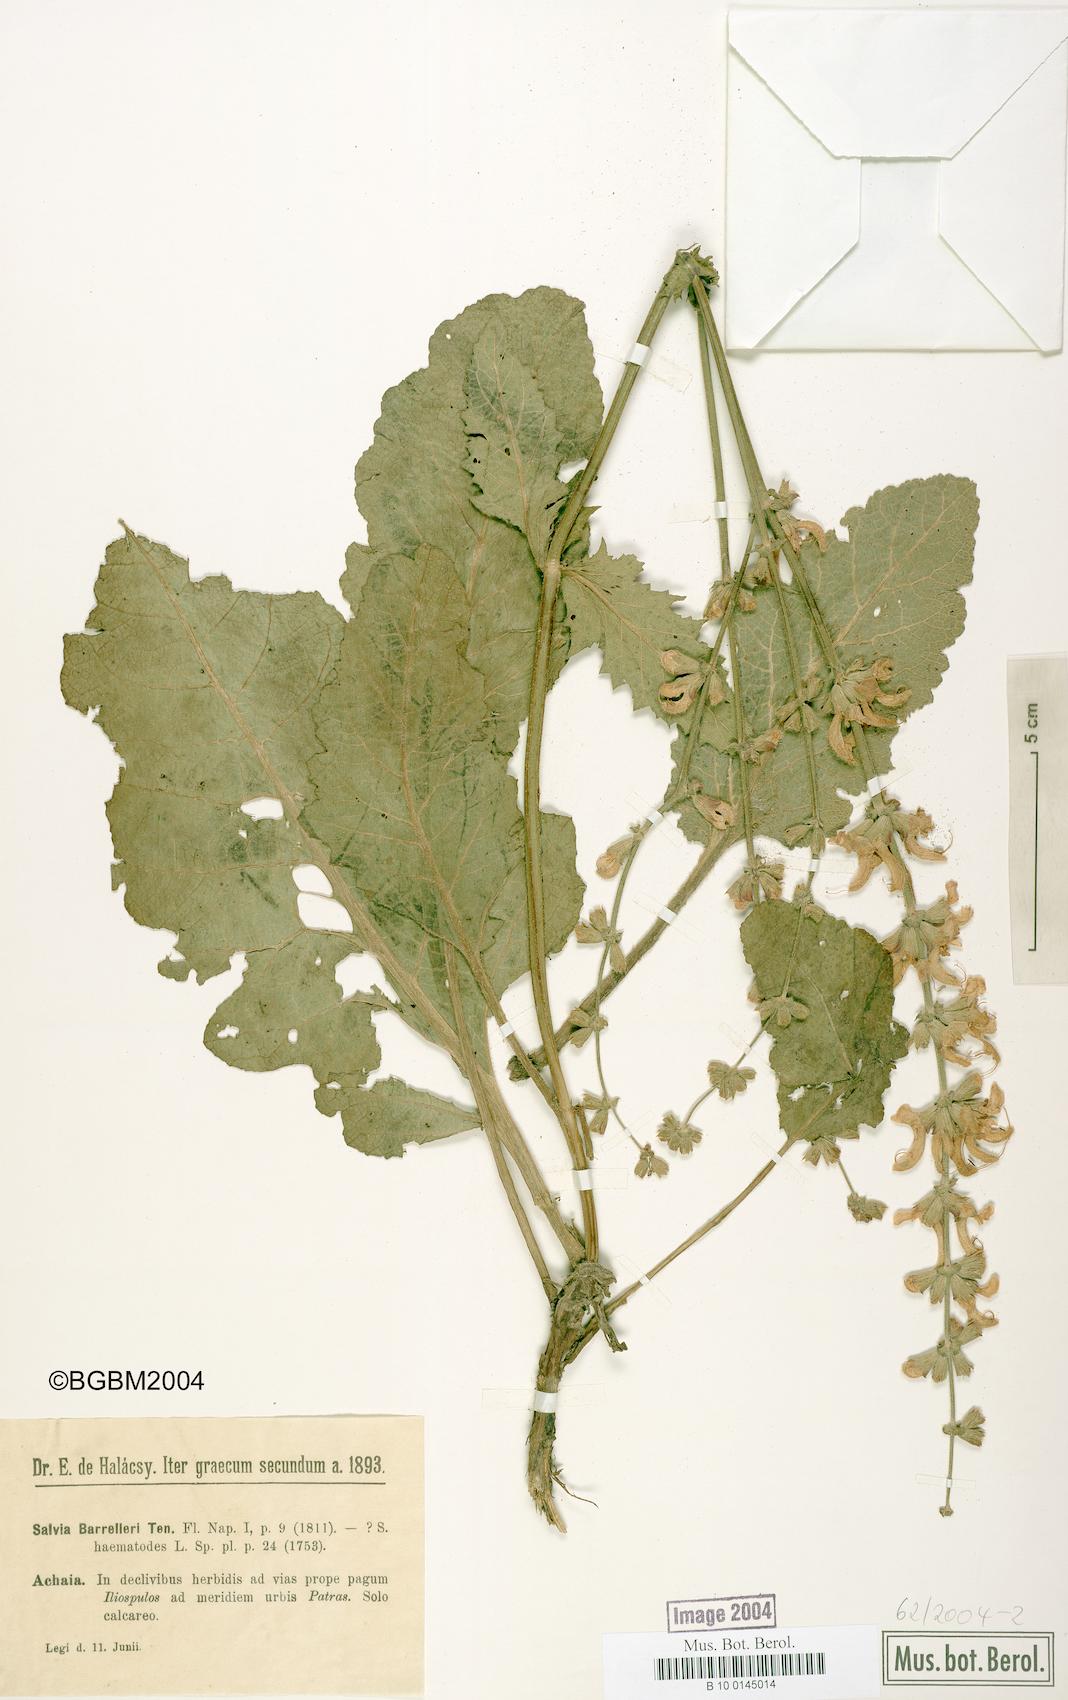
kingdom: Plantae
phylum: Tracheophyta
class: Magnoliopsida
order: Lamiales
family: Lamiaceae
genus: Salvia
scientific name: Salvia barrelieri
